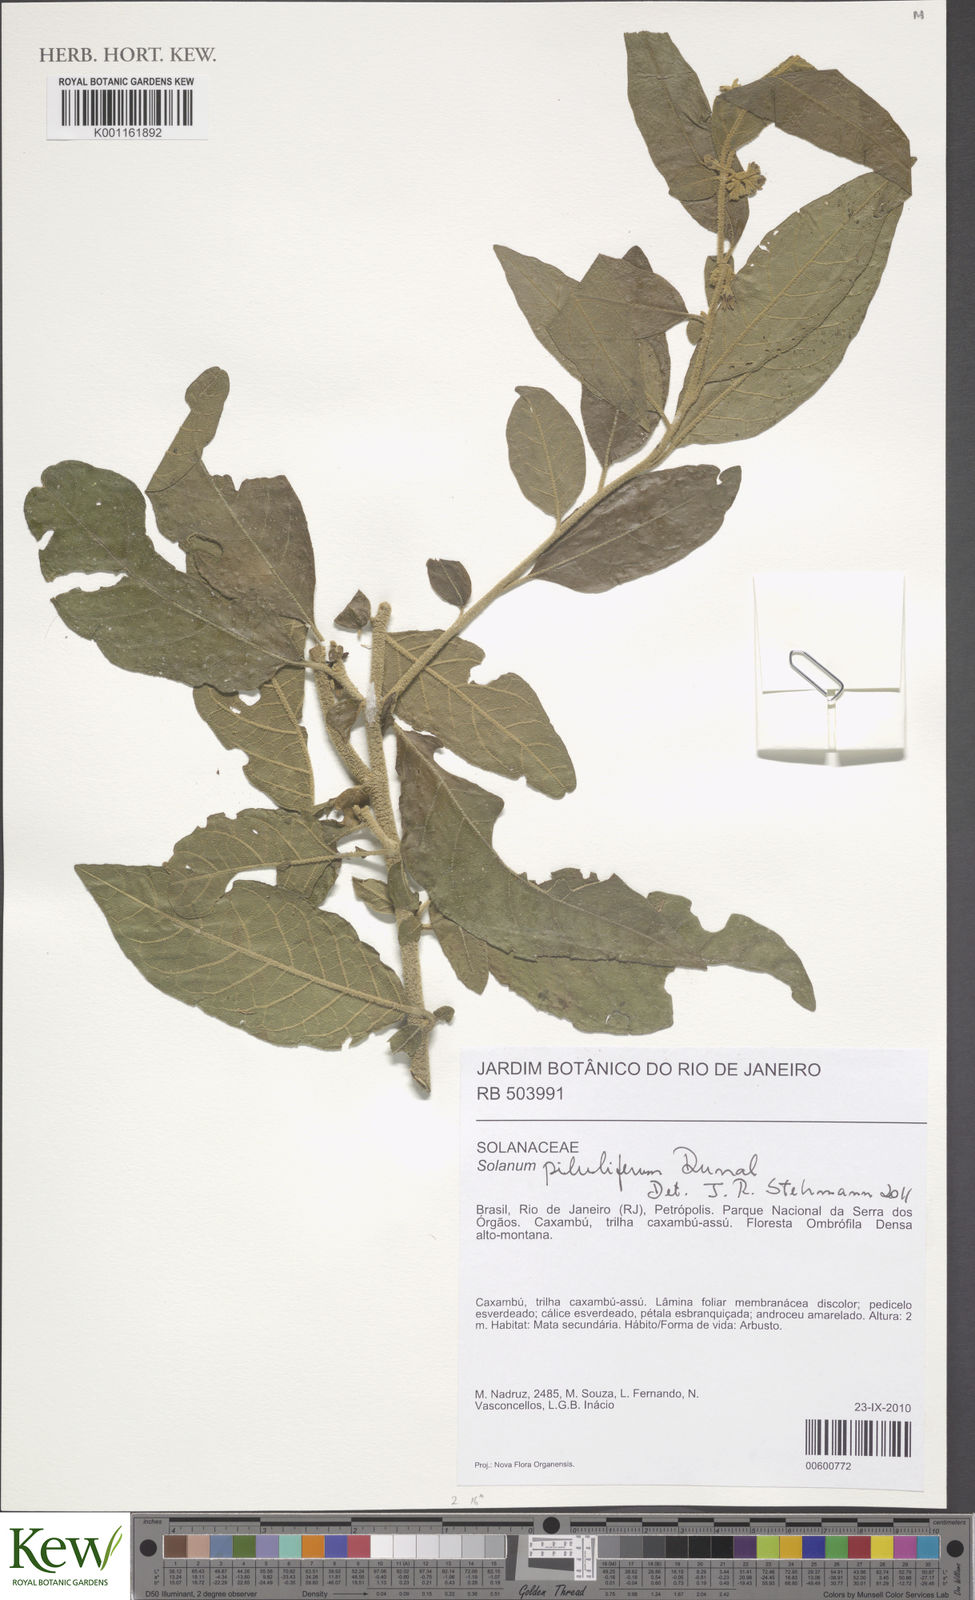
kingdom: Plantae
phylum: Tracheophyta
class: Magnoliopsida
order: Solanales
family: Solanaceae
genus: Solanum
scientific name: Solanum piluliferum
